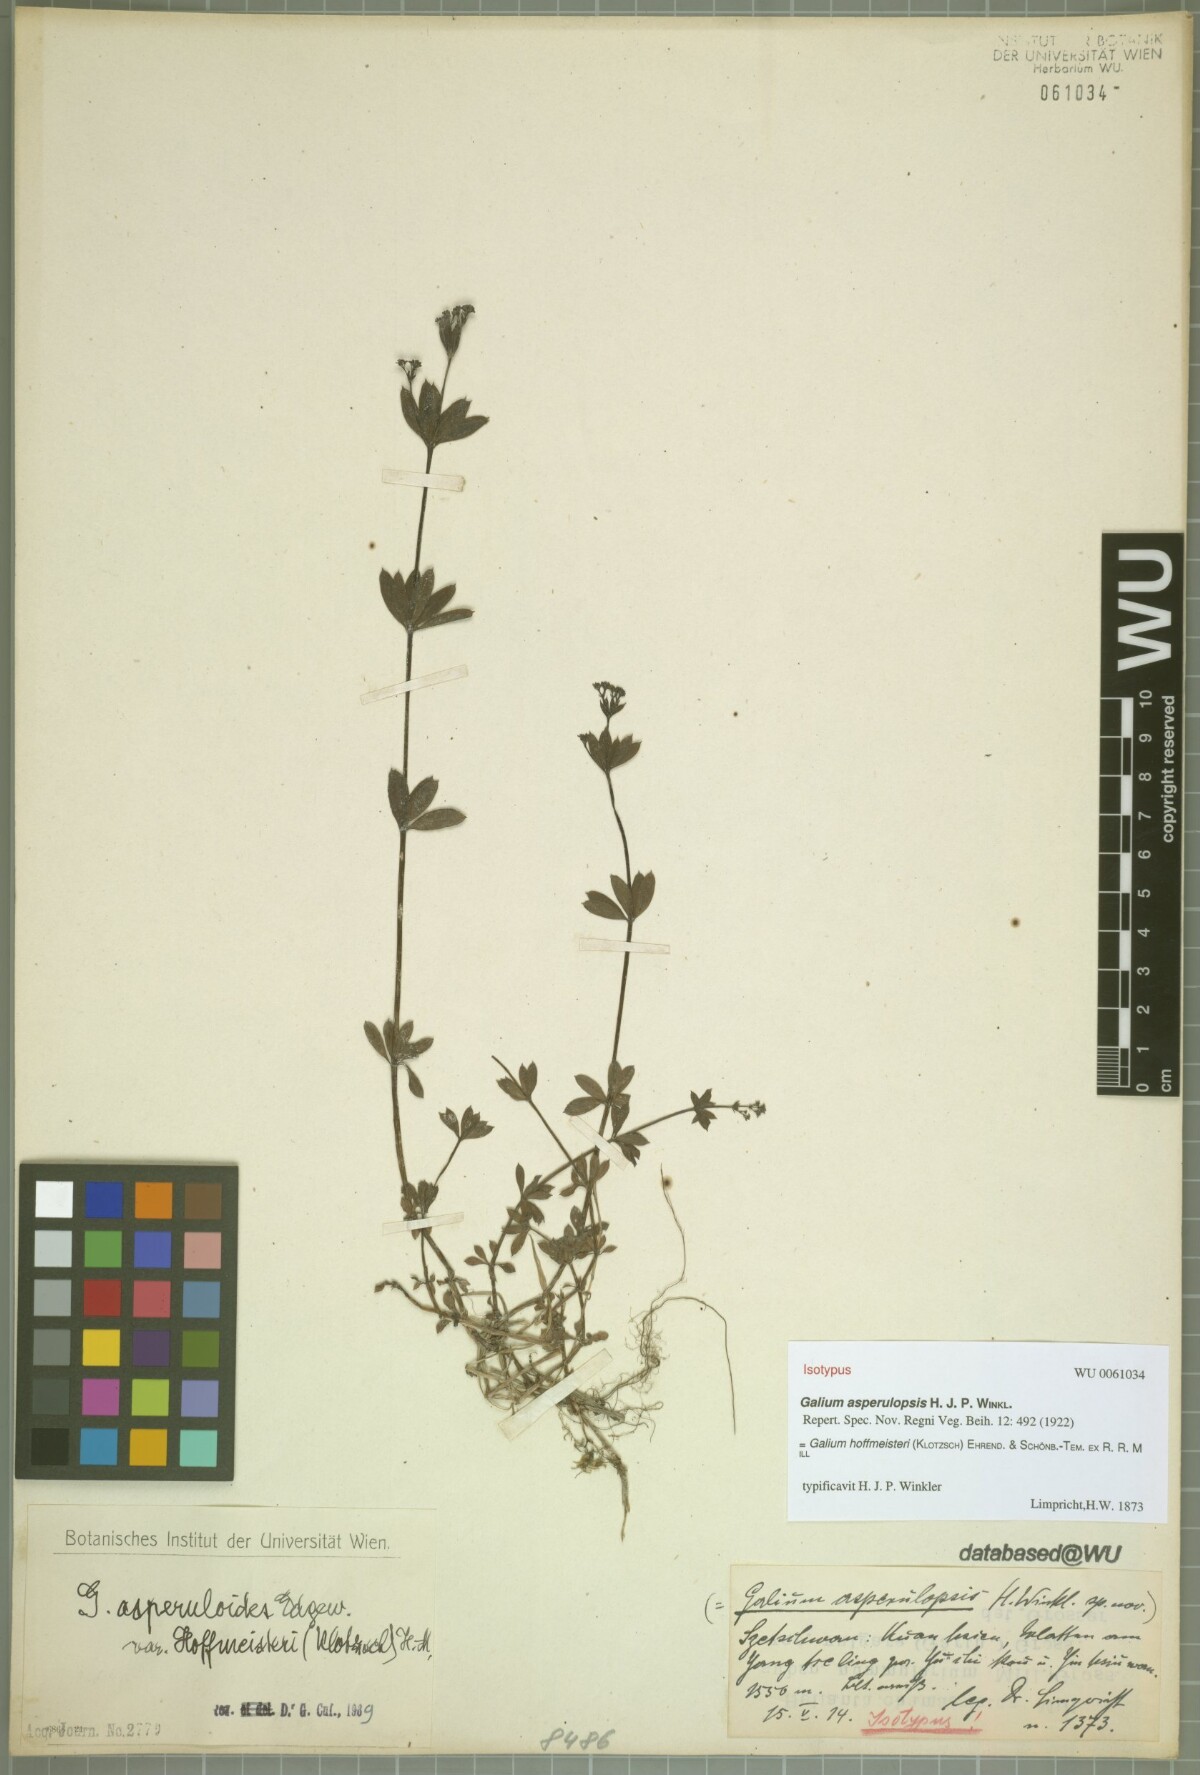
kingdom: Plantae
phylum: Tracheophyta
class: Magnoliopsida
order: Gentianales
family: Rubiaceae
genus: Galium
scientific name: Galium hoffmeisteri
